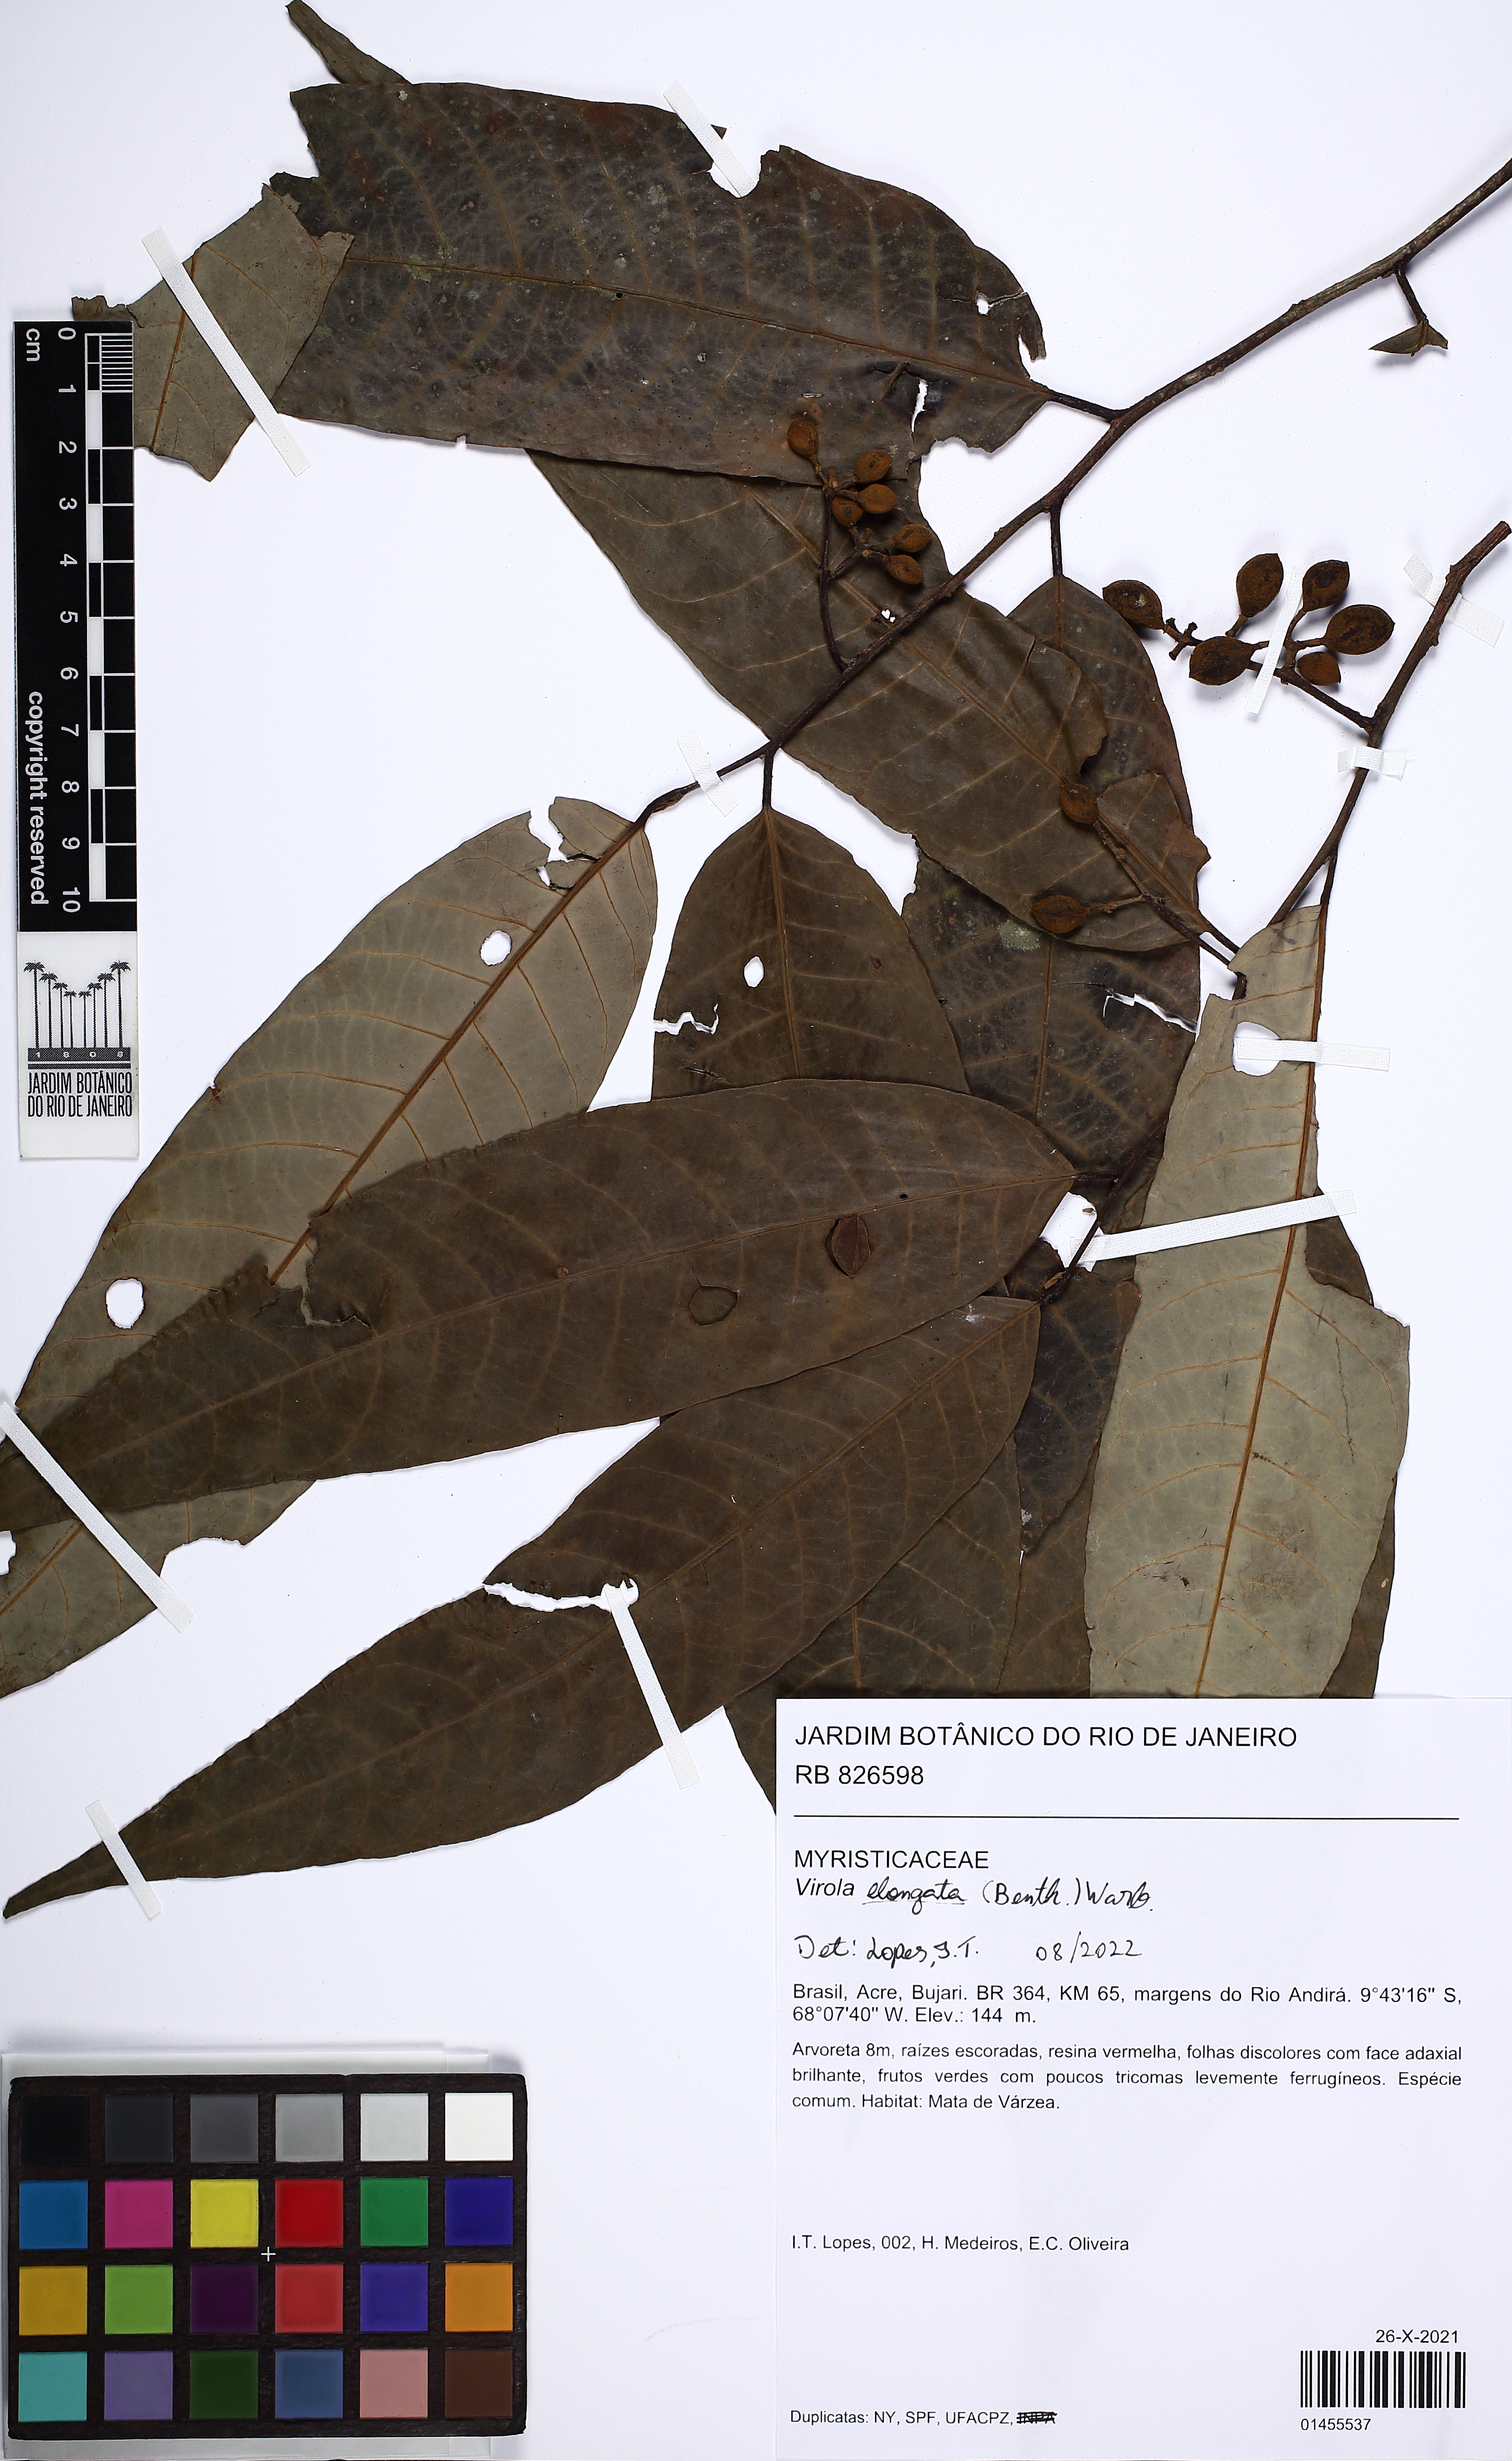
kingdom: Plantae
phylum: Tracheophyta
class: Magnoliopsida
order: Magnoliales
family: Myristicaceae
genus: Virola
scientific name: Virola elongata
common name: Sacred virola
